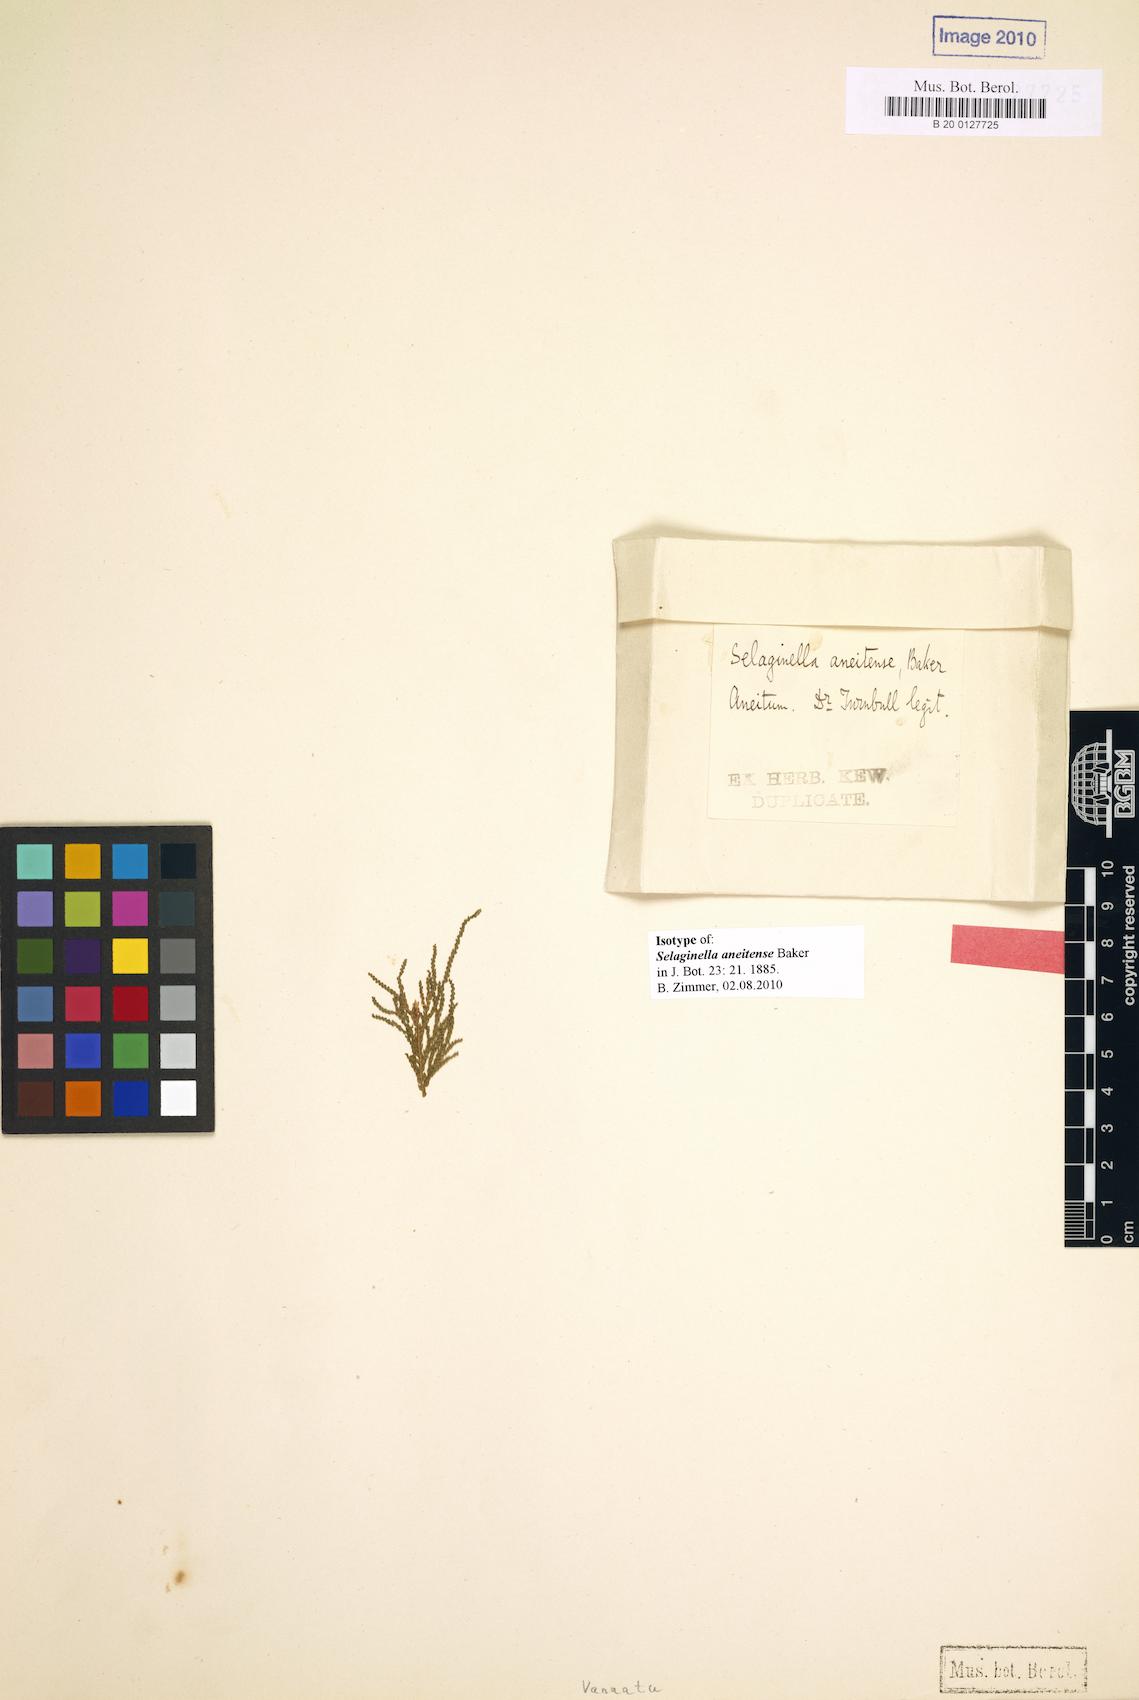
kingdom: Plantae
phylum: Tracheophyta
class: Lycopodiopsida
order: Selaginellales
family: Selaginellaceae
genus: Selaginella
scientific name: Selaginella canaliculata
